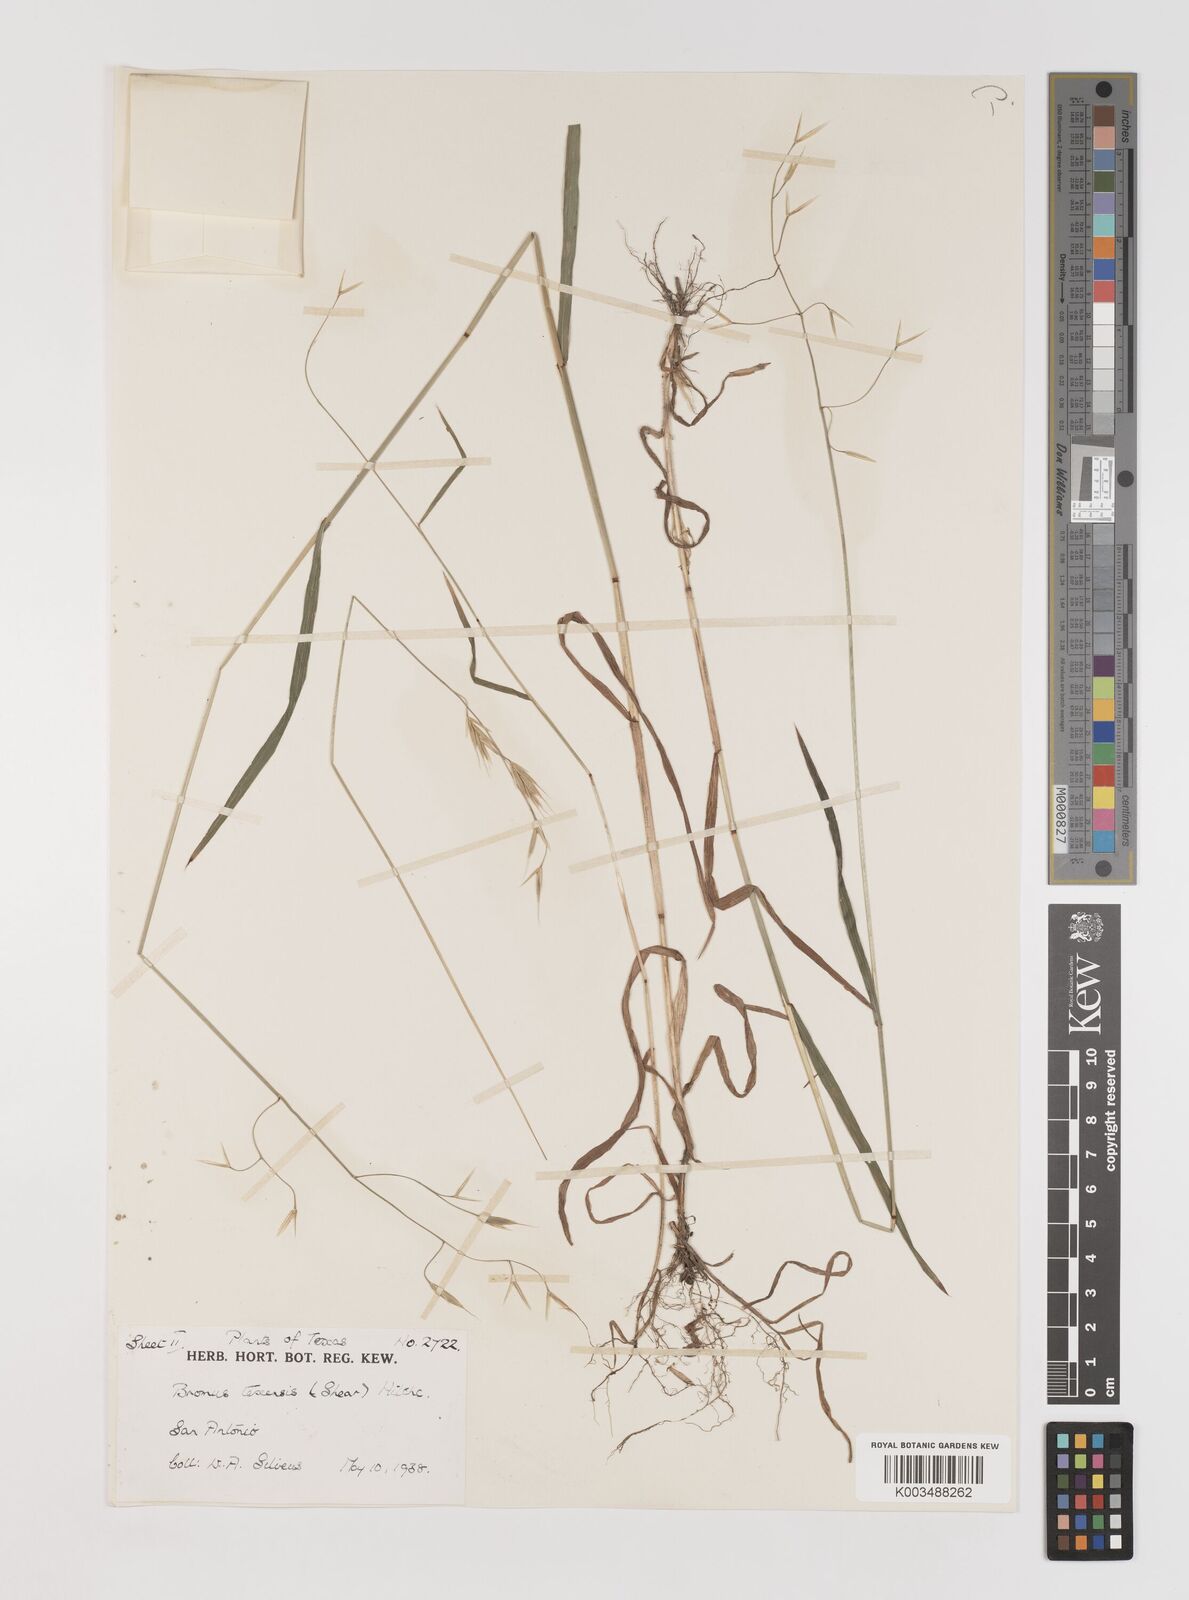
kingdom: Plantae
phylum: Tracheophyta
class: Liliopsida
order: Poales
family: Poaceae
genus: Bromus
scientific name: Bromus texensis
